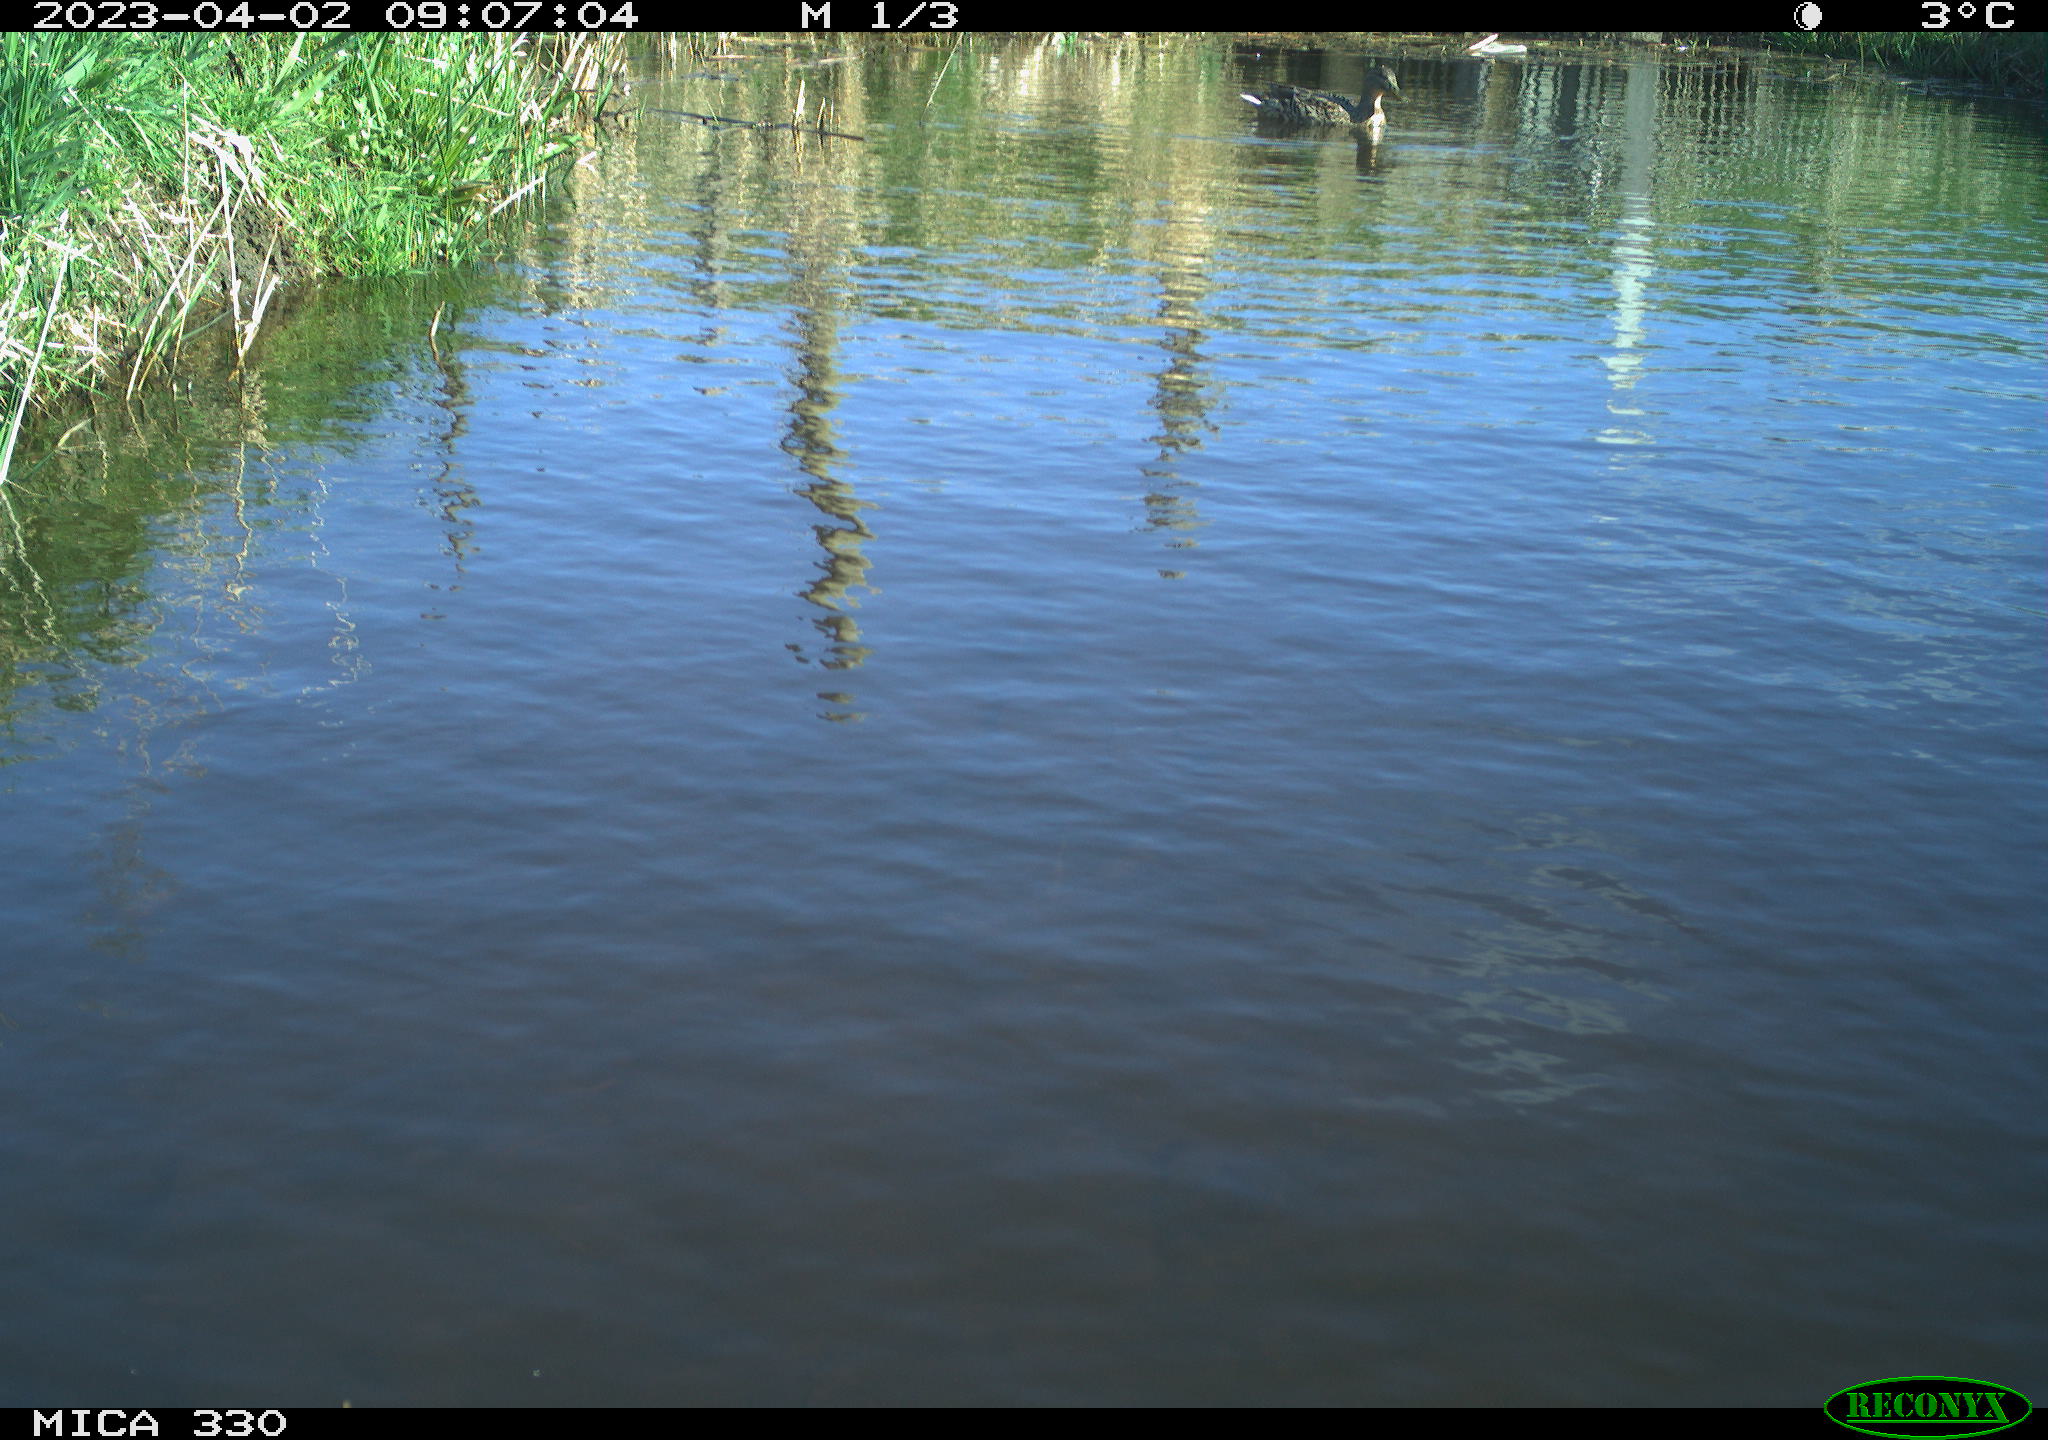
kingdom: Animalia
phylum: Chordata
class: Aves
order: Anseriformes
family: Anatidae
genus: Anas
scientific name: Anas platyrhynchos
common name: Mallard
